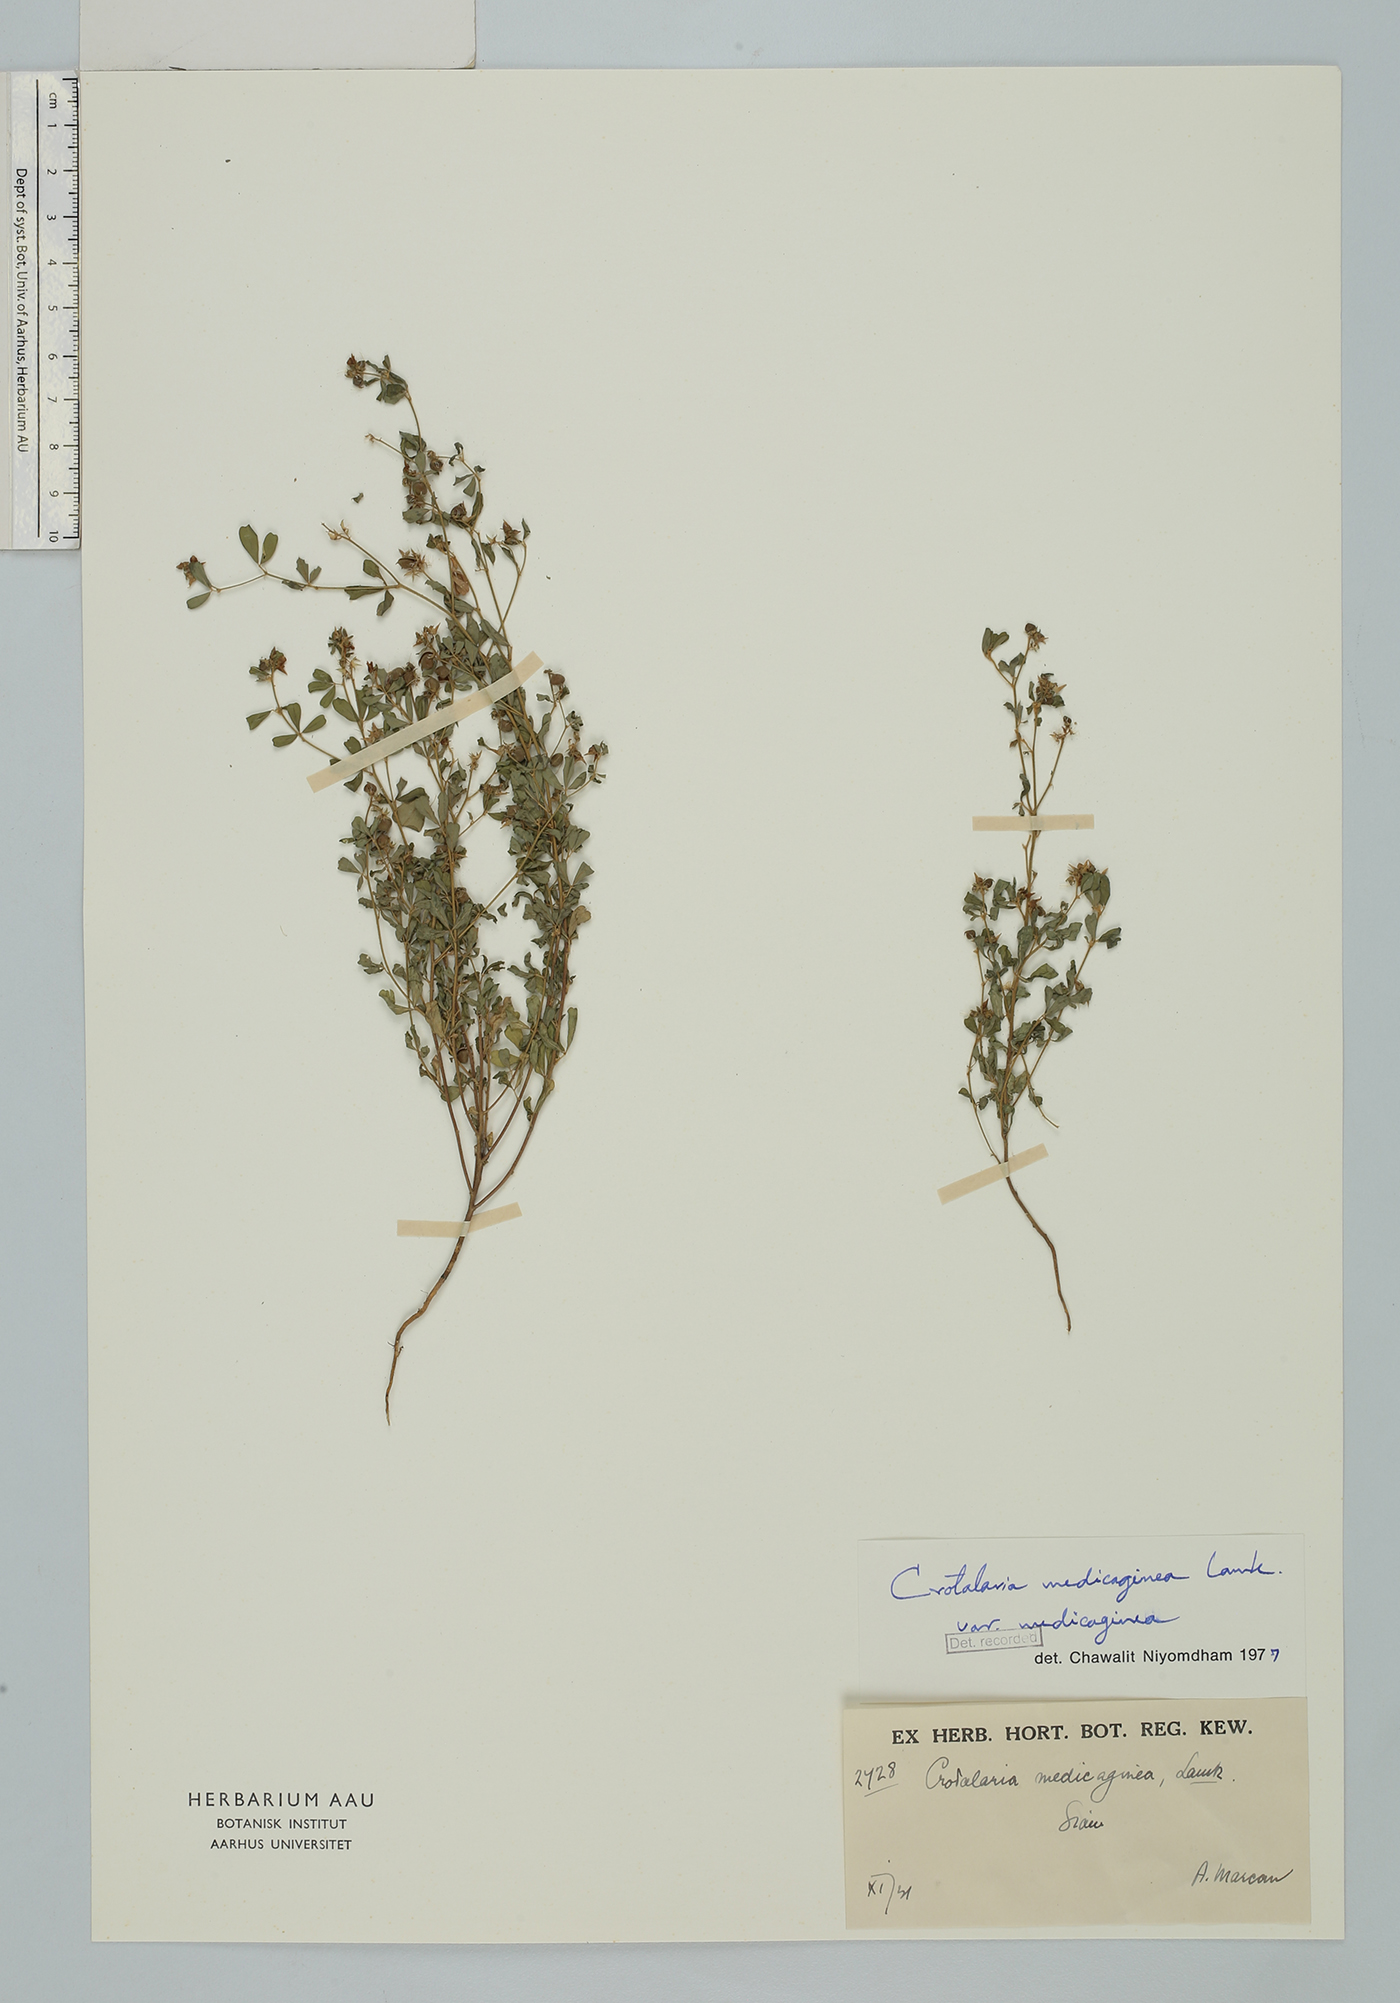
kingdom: Plantae
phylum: Tracheophyta
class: Magnoliopsida
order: Fabales
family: Fabaceae
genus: Crotalaria
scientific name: Crotalaria medicaginea
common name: Trefoil rattlepod
